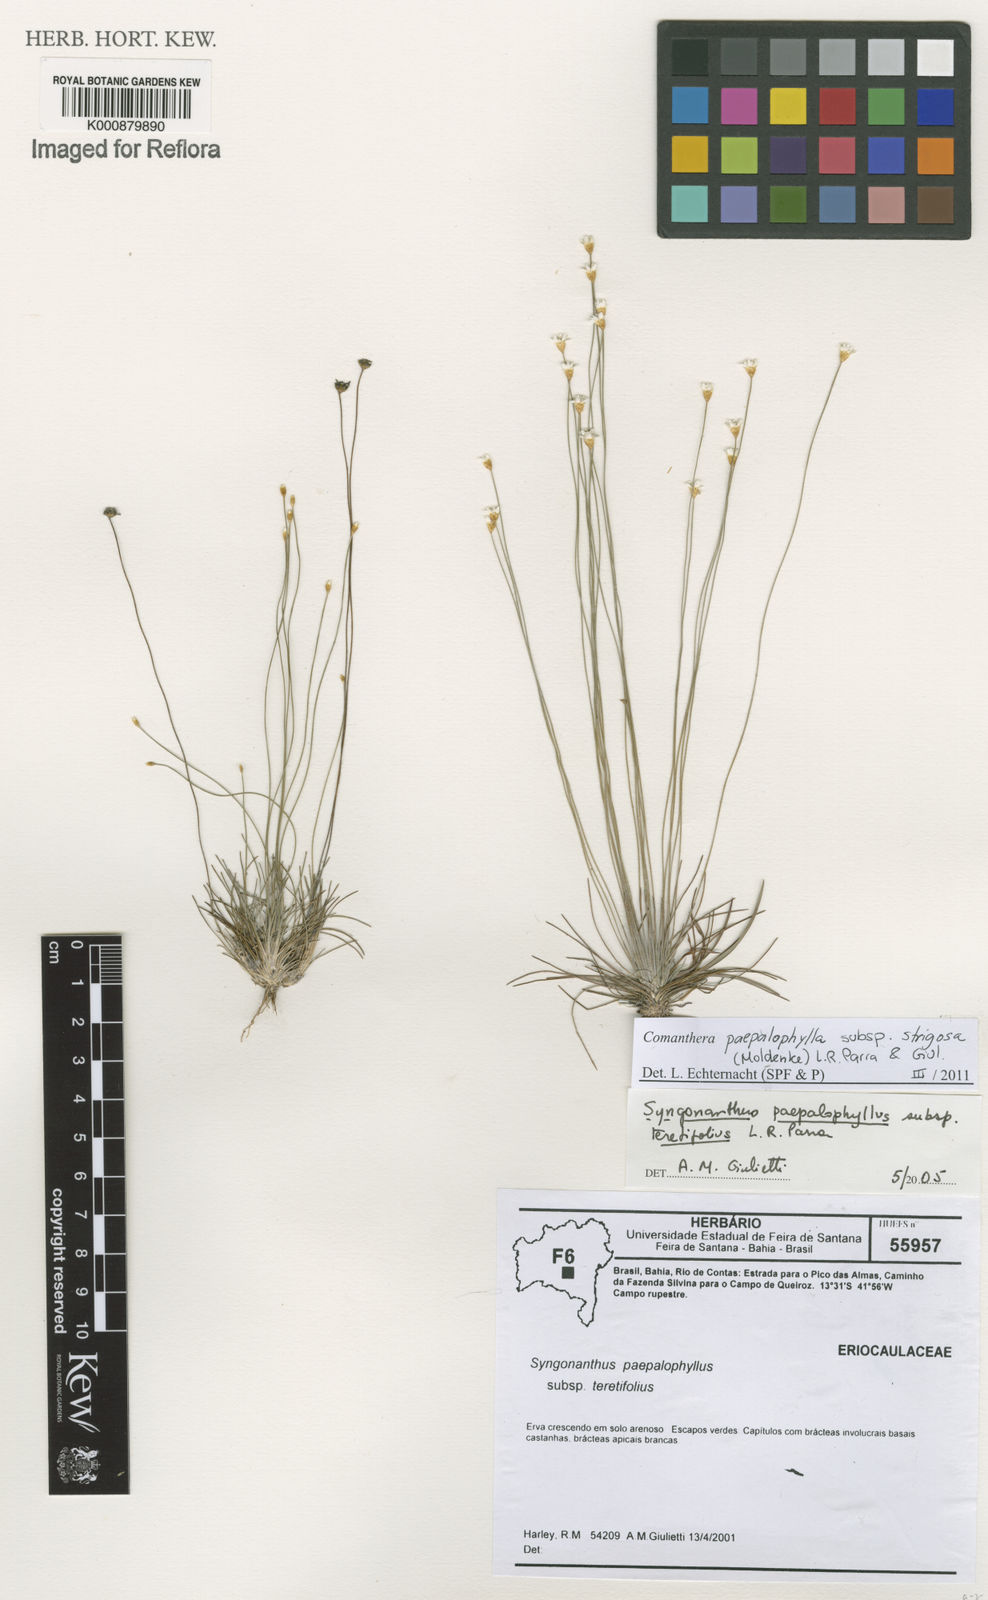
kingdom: Plantae
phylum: Tracheophyta
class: Liliopsida
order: Poales
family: Eriocaulaceae
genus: Comanthera
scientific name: Comanthera paepalophylla
